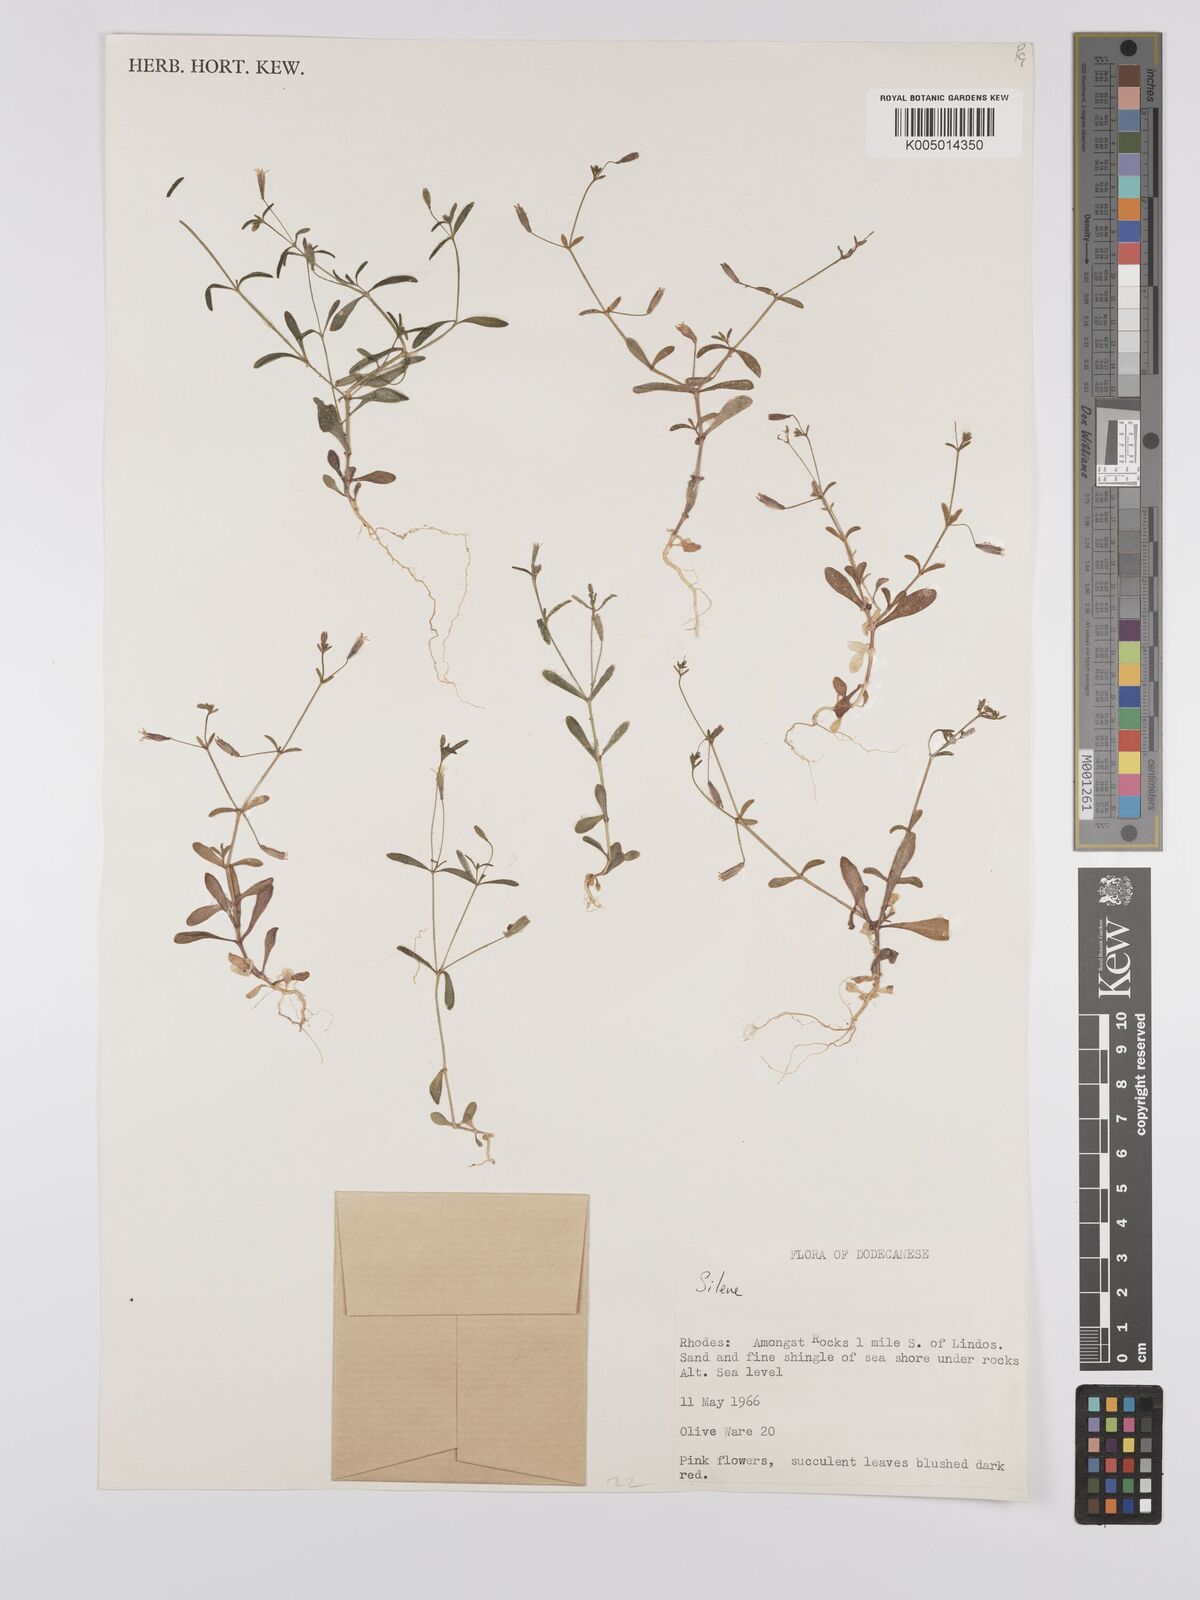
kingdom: Plantae
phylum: Tracheophyta
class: Magnoliopsida
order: Caryophyllales
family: Caryophyllaceae
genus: Silene
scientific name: Silene
